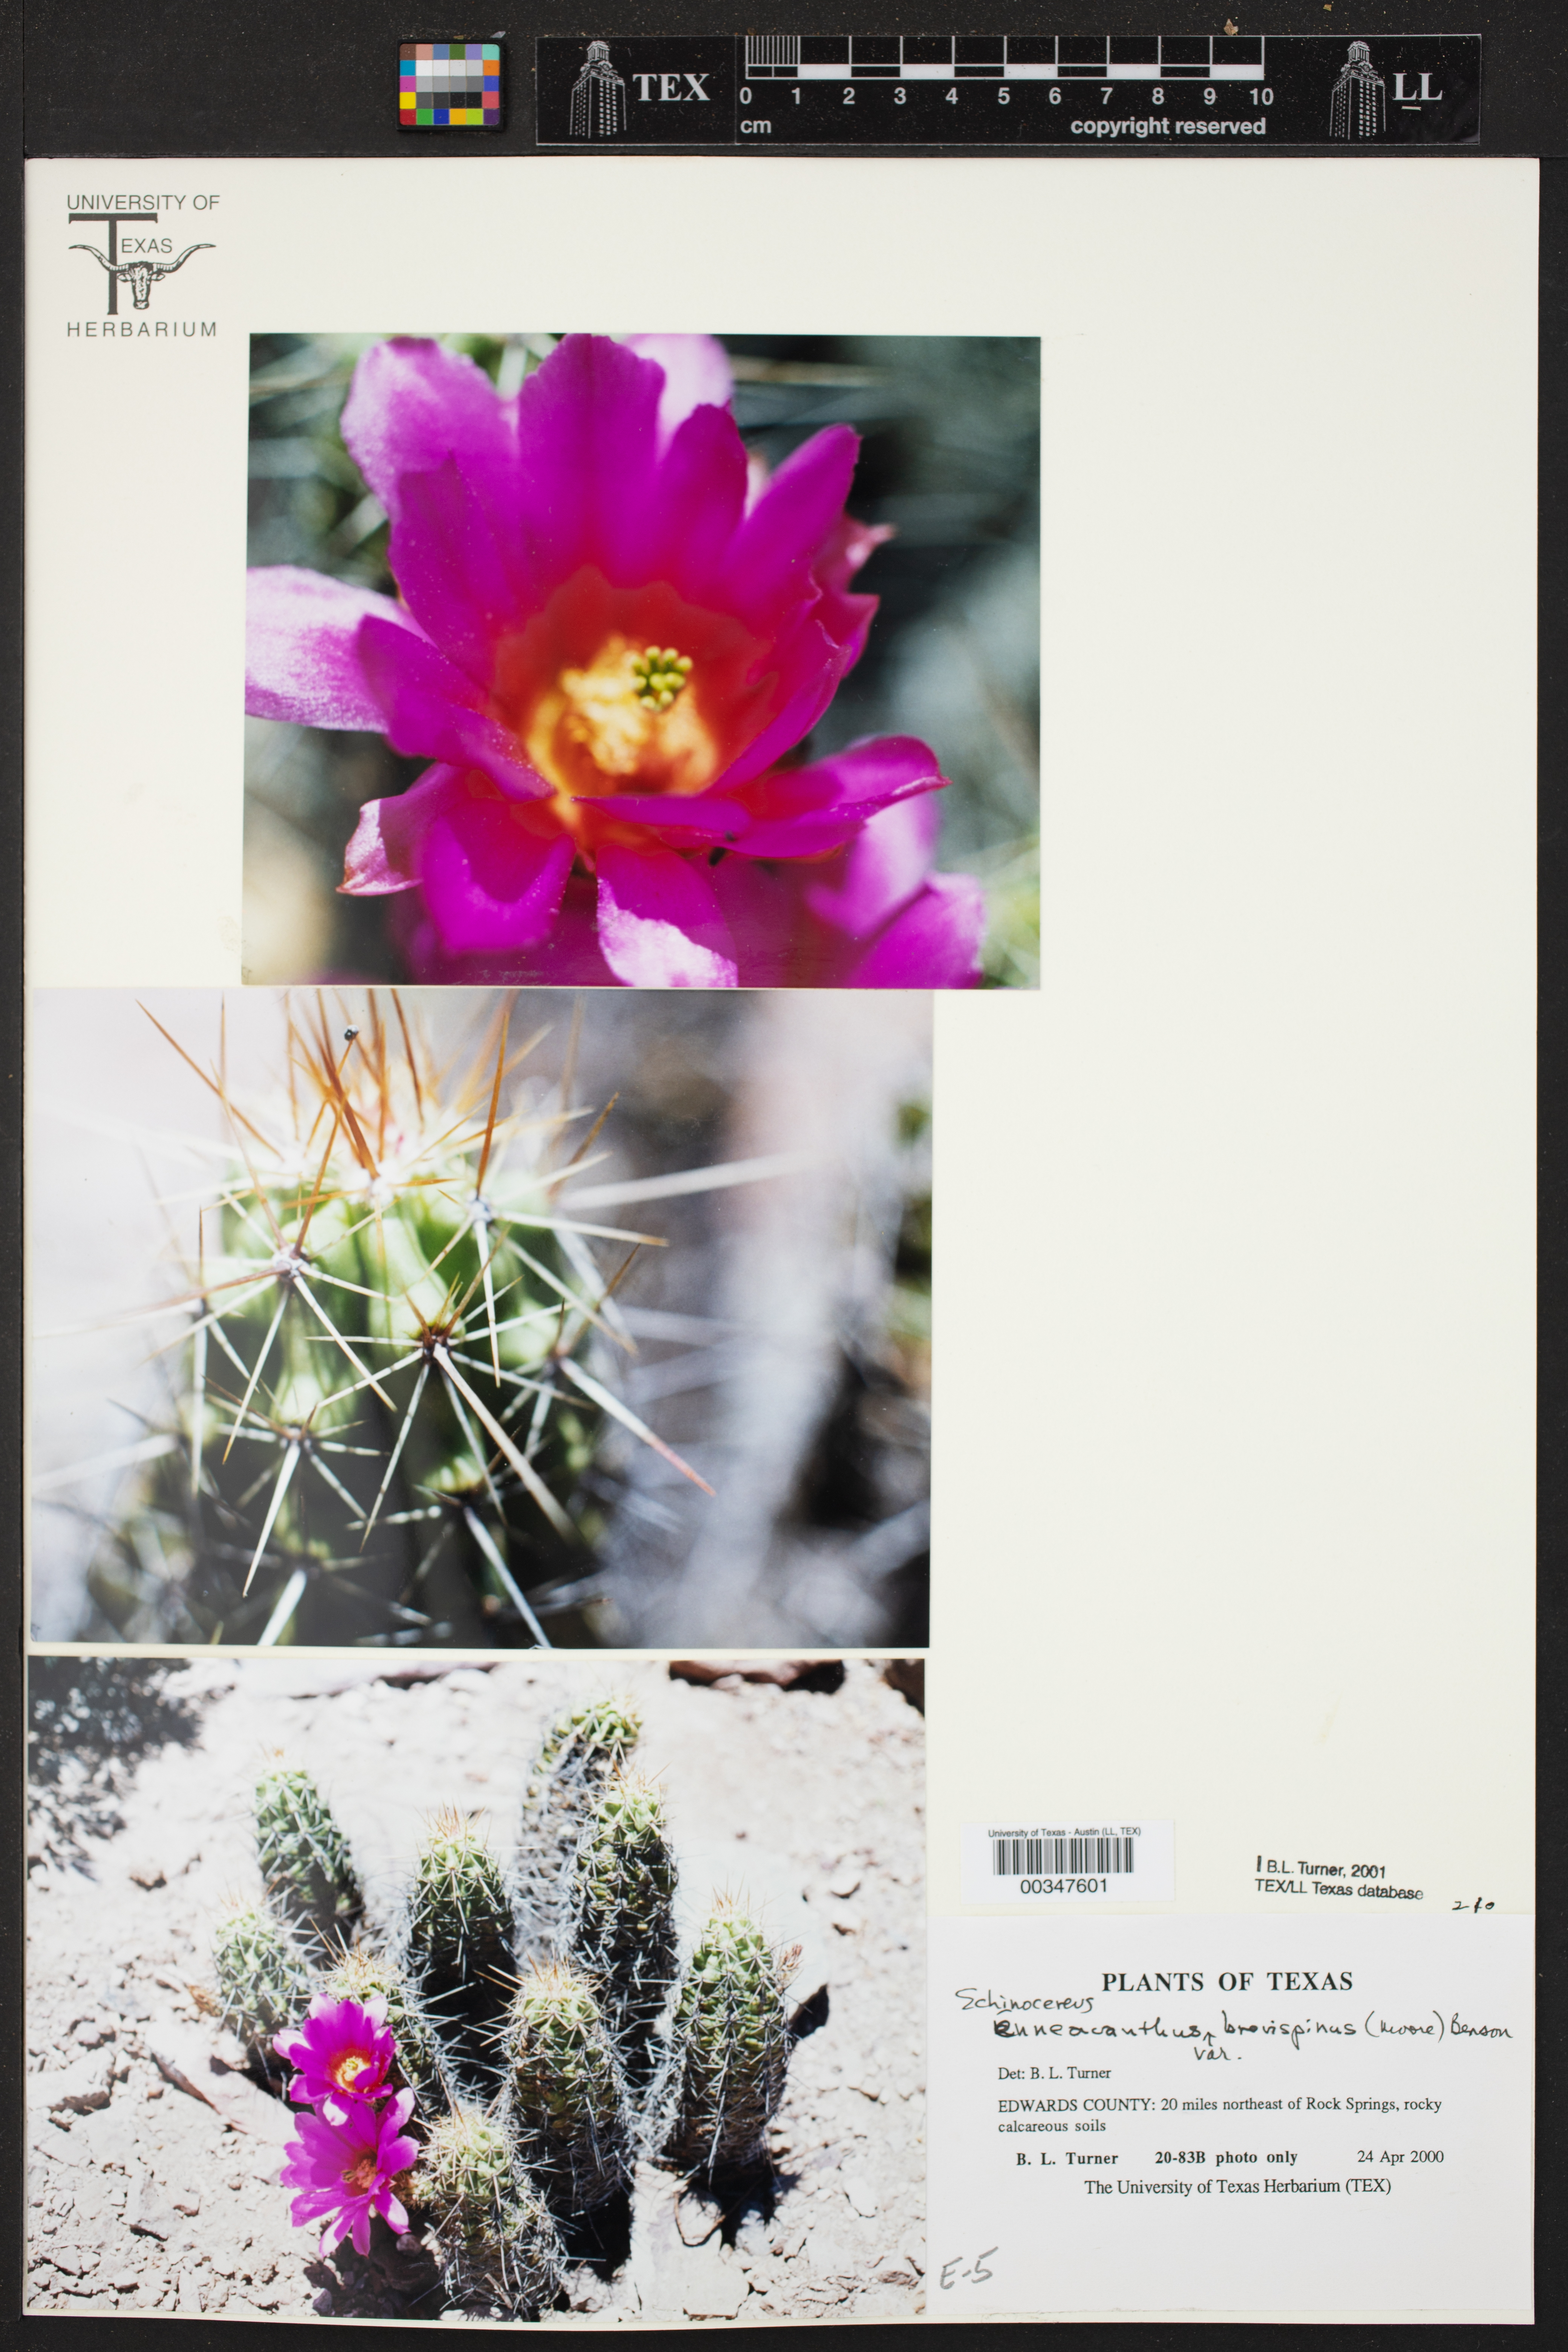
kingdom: Plantae
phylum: Tracheophyta
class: Magnoliopsida
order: Caryophyllales
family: Cactaceae
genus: Echinocereus
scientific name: Echinocereus enneacanthus
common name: Pitaya
